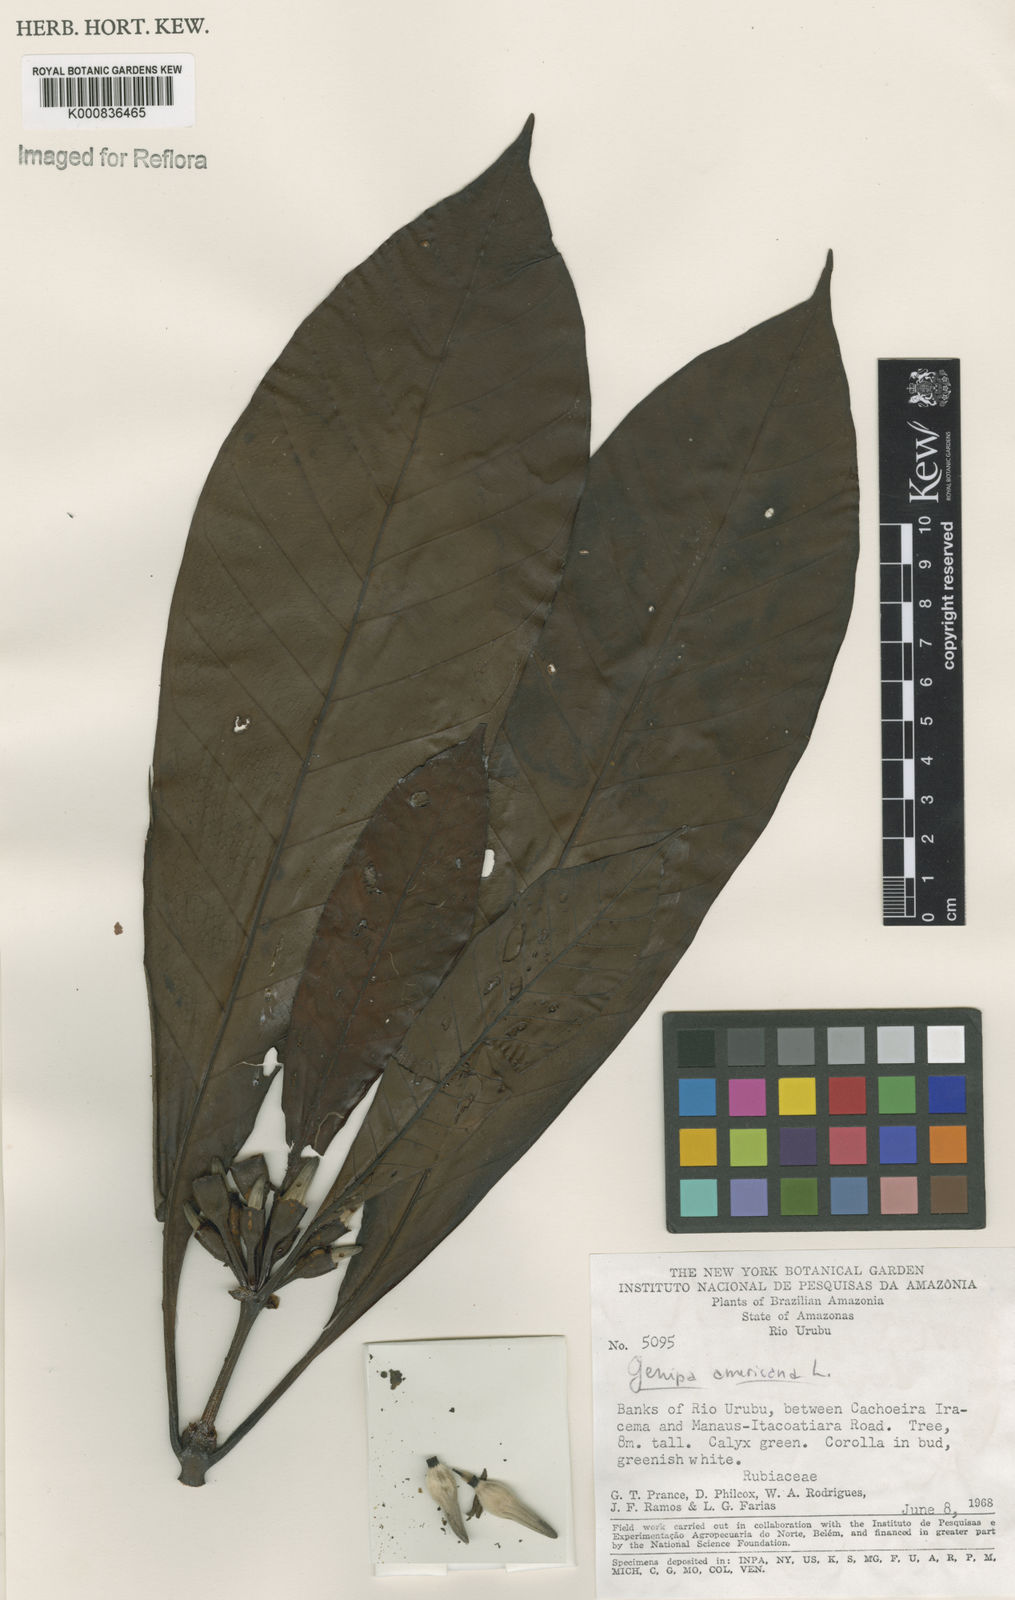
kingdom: Plantae
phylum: Tracheophyta
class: Magnoliopsida
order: Gentianales
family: Rubiaceae
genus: Genipa
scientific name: Genipa americana
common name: Genipap
